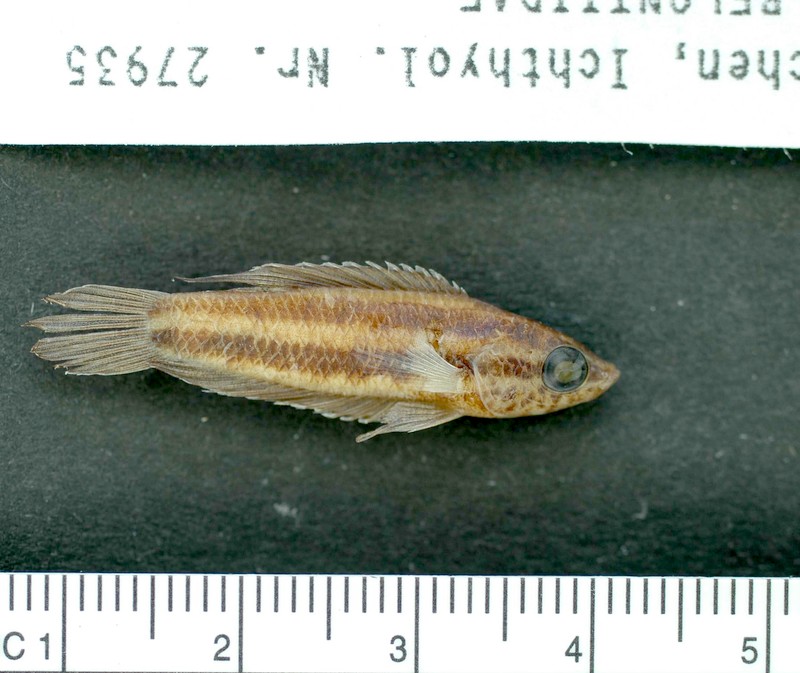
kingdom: Animalia
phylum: Chordata
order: Perciformes
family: Osphronemidae
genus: Parosphromenus
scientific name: Parosphromenus anjunganensis
